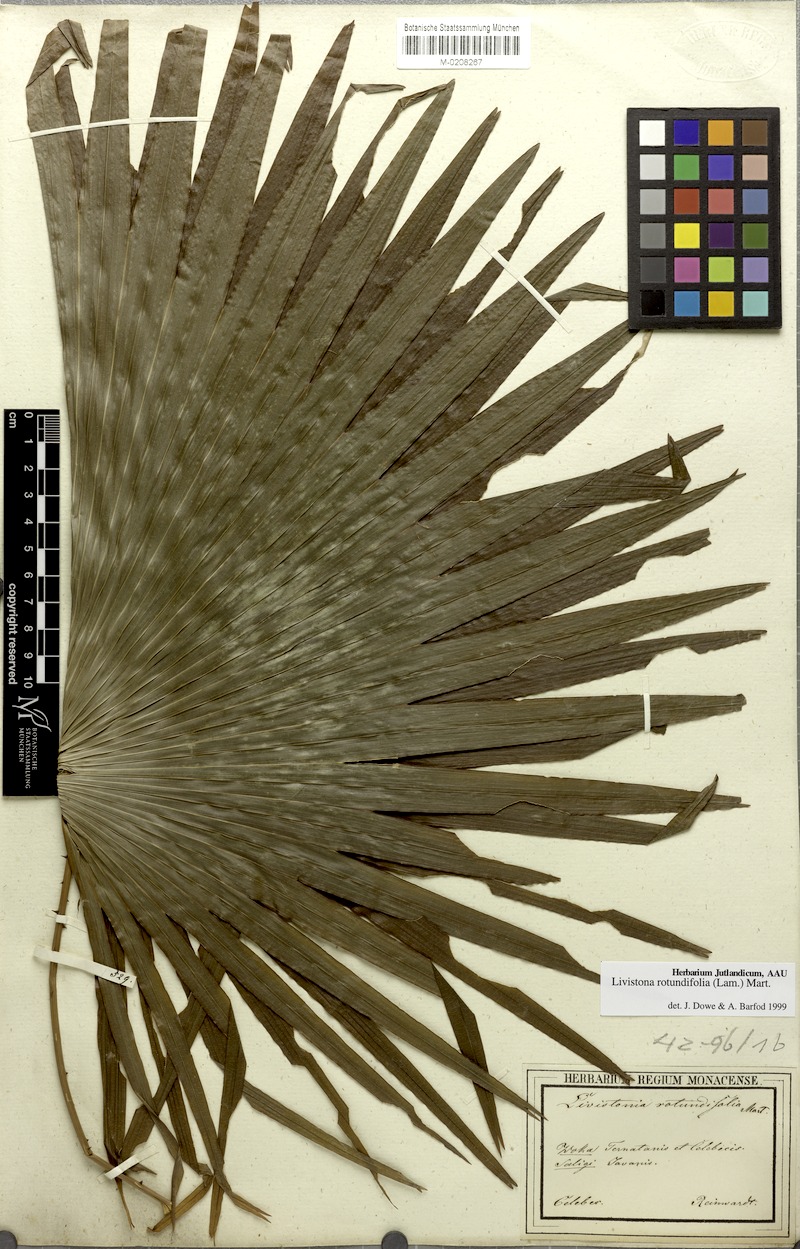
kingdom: Plantae
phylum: Tracheophyta
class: Liliopsida
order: Arecales
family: Arecaceae
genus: Saribus
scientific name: Saribus rotundifolius
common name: Palm
